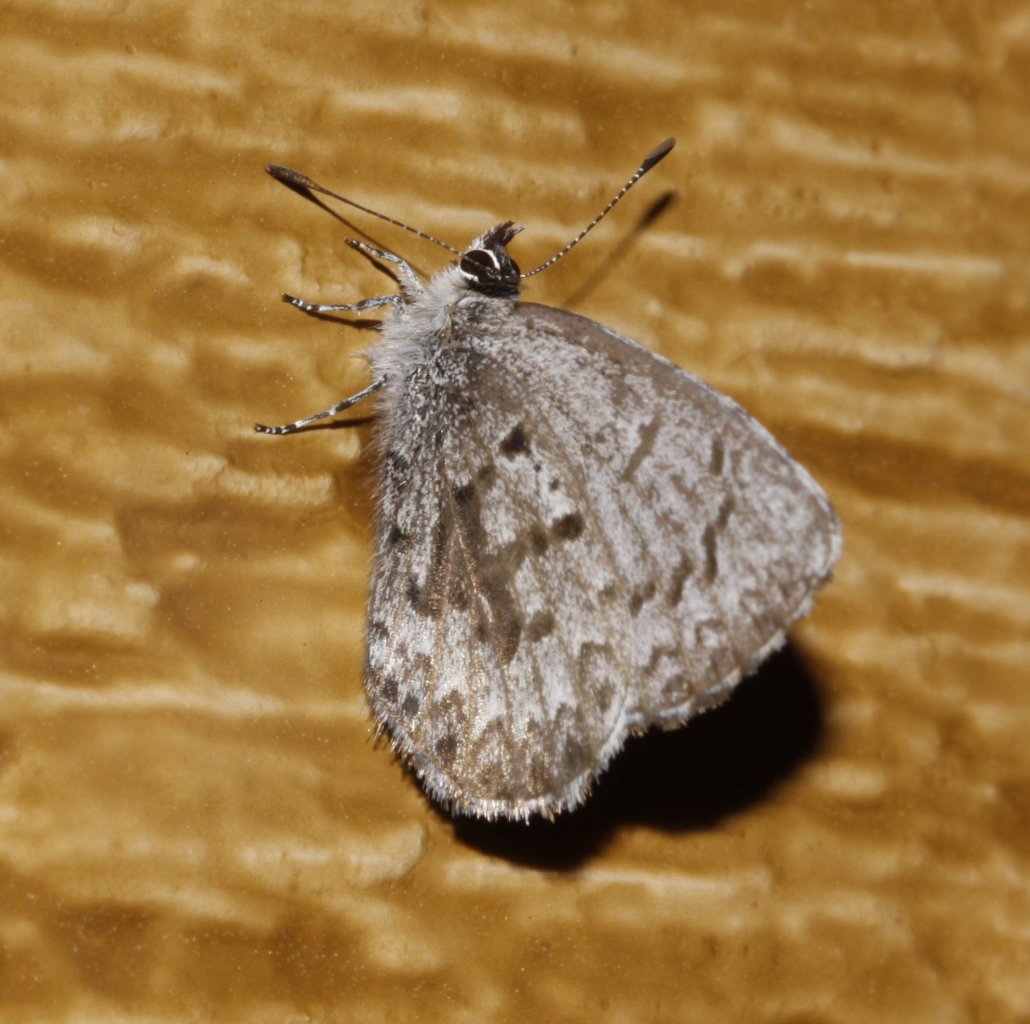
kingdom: Animalia
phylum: Arthropoda
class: Insecta
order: Lepidoptera
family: Lycaenidae
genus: Celastrina
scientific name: Celastrina
